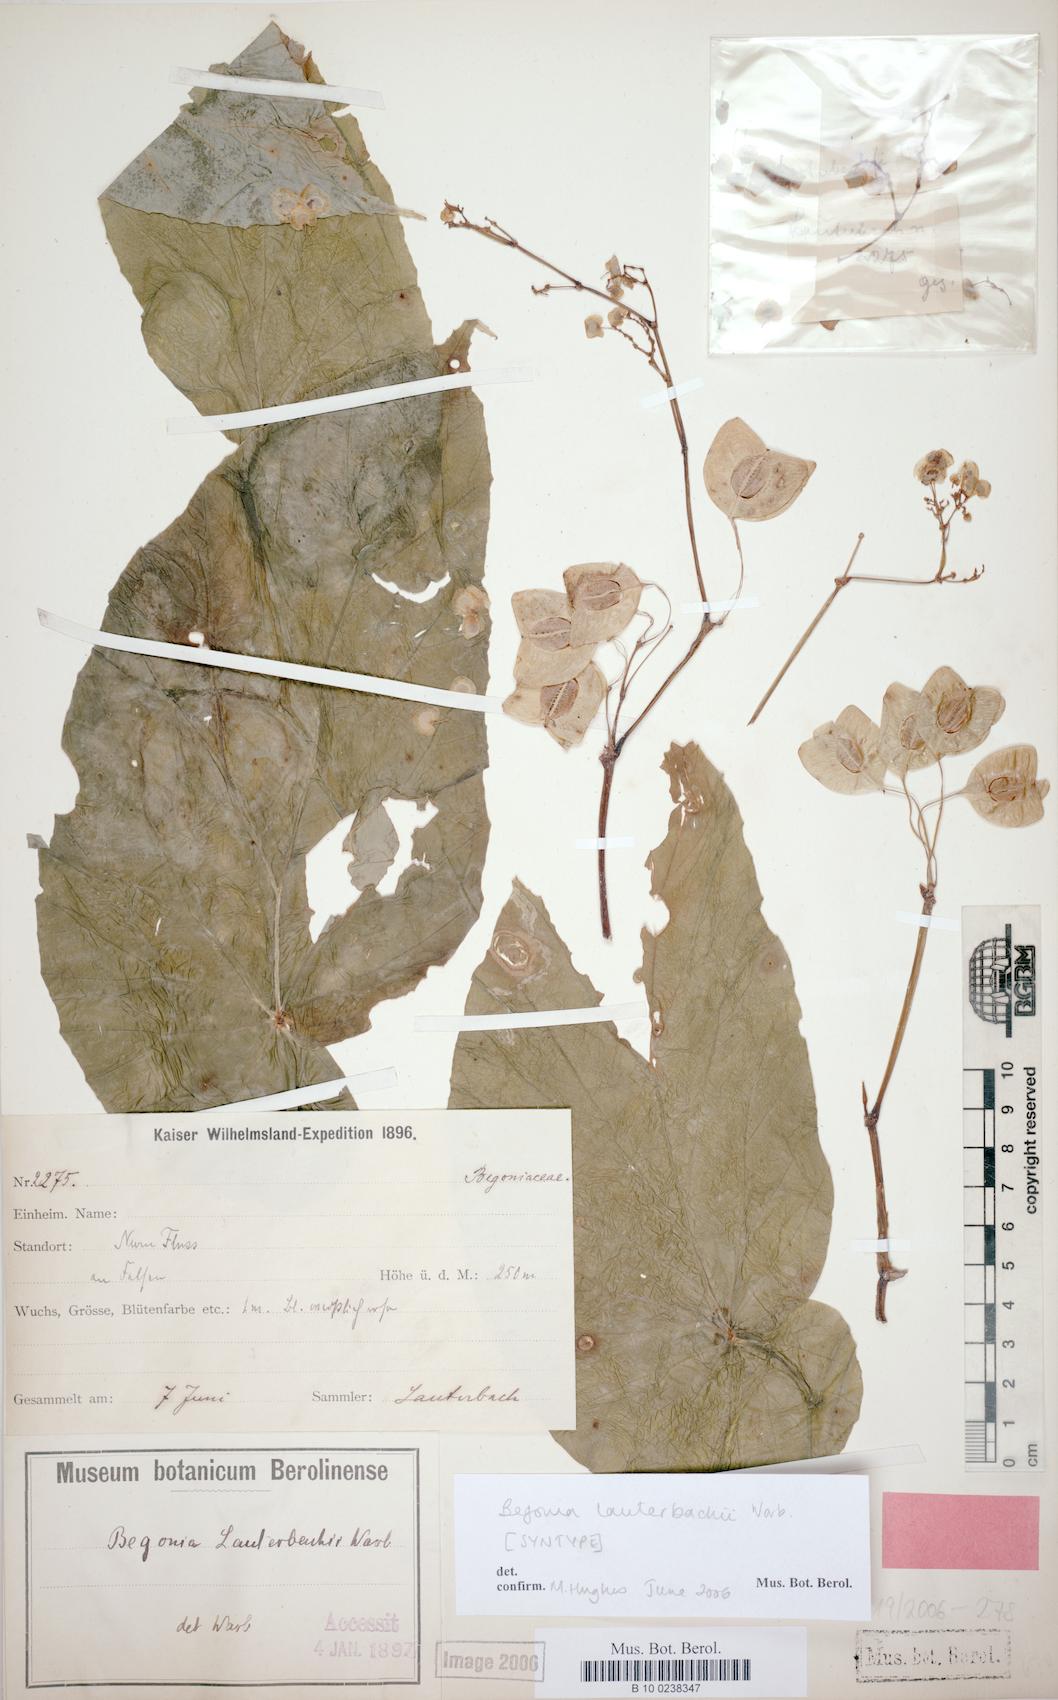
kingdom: Plantae
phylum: Tracheophyta
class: Magnoliopsida
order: Cucurbitales
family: Begoniaceae
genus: Begonia
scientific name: Begonia lauterbachii
